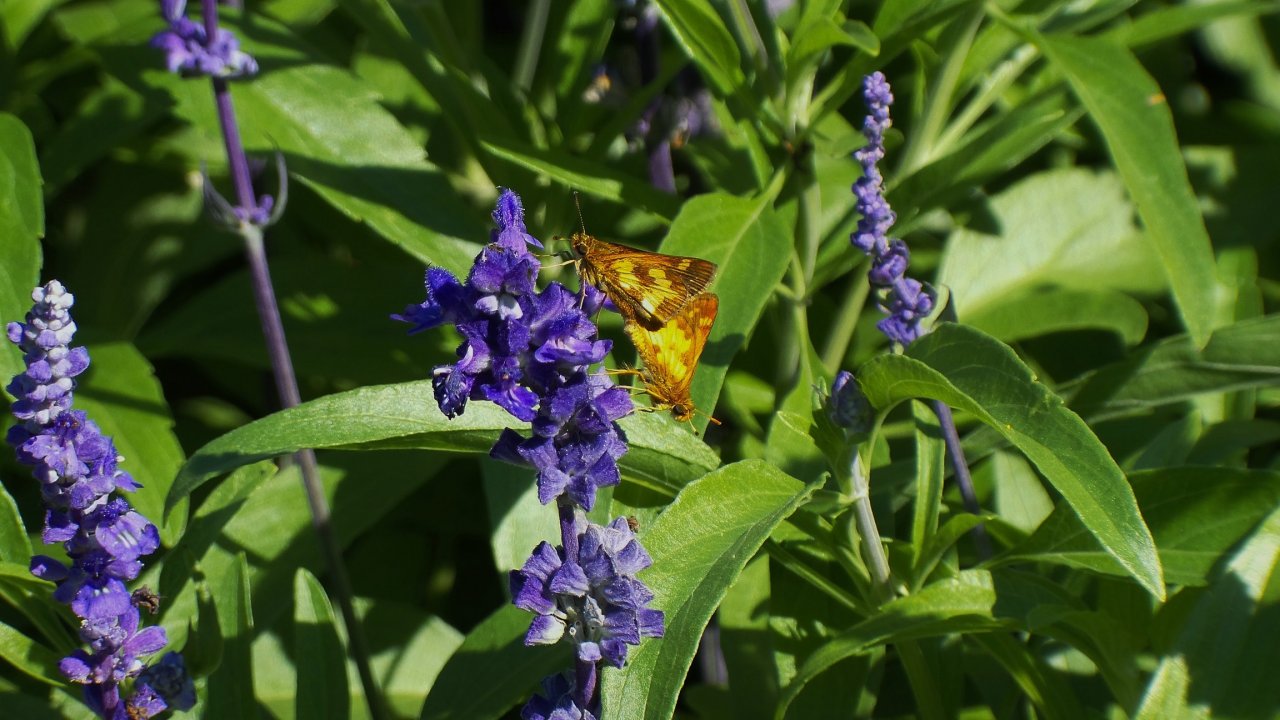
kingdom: Animalia
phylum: Arthropoda
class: Insecta
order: Lepidoptera
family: Hesperiidae
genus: Polites
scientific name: Polites coras
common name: Peck's Skipper
